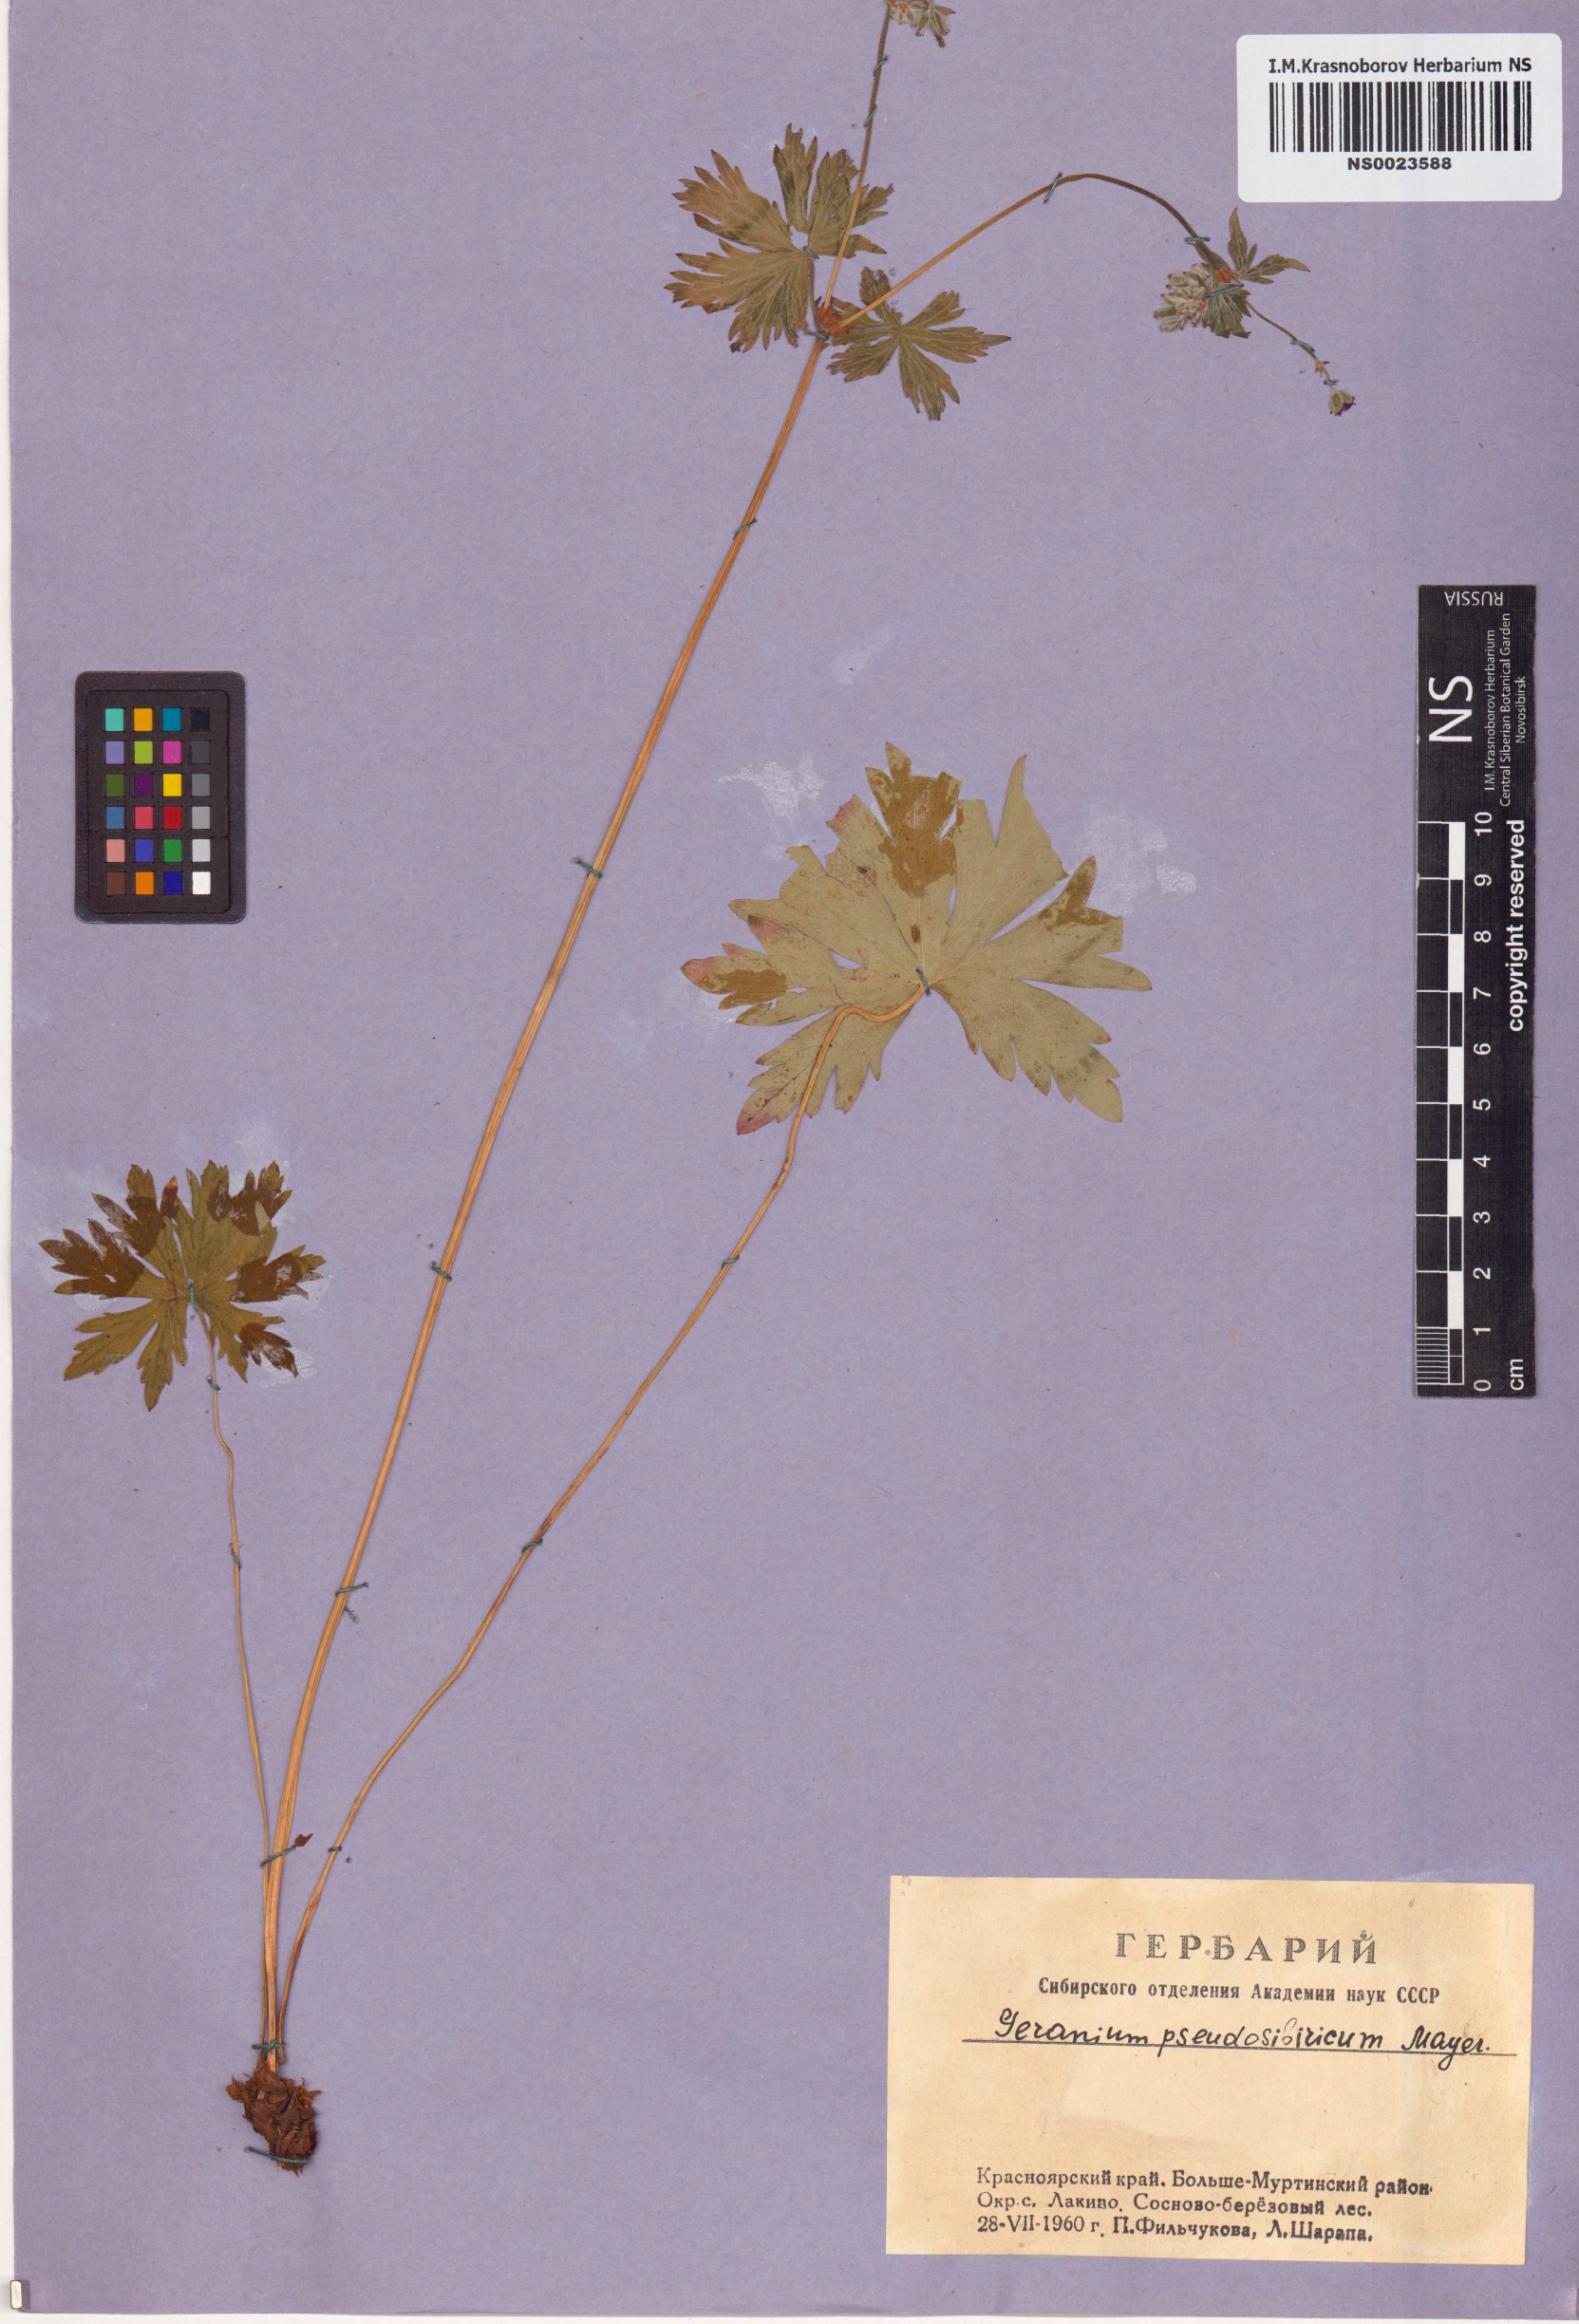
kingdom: Plantae
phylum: Tracheophyta
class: Magnoliopsida
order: Geraniales
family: Geraniaceae
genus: Geranium
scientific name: Geranium pseudosibiricum
